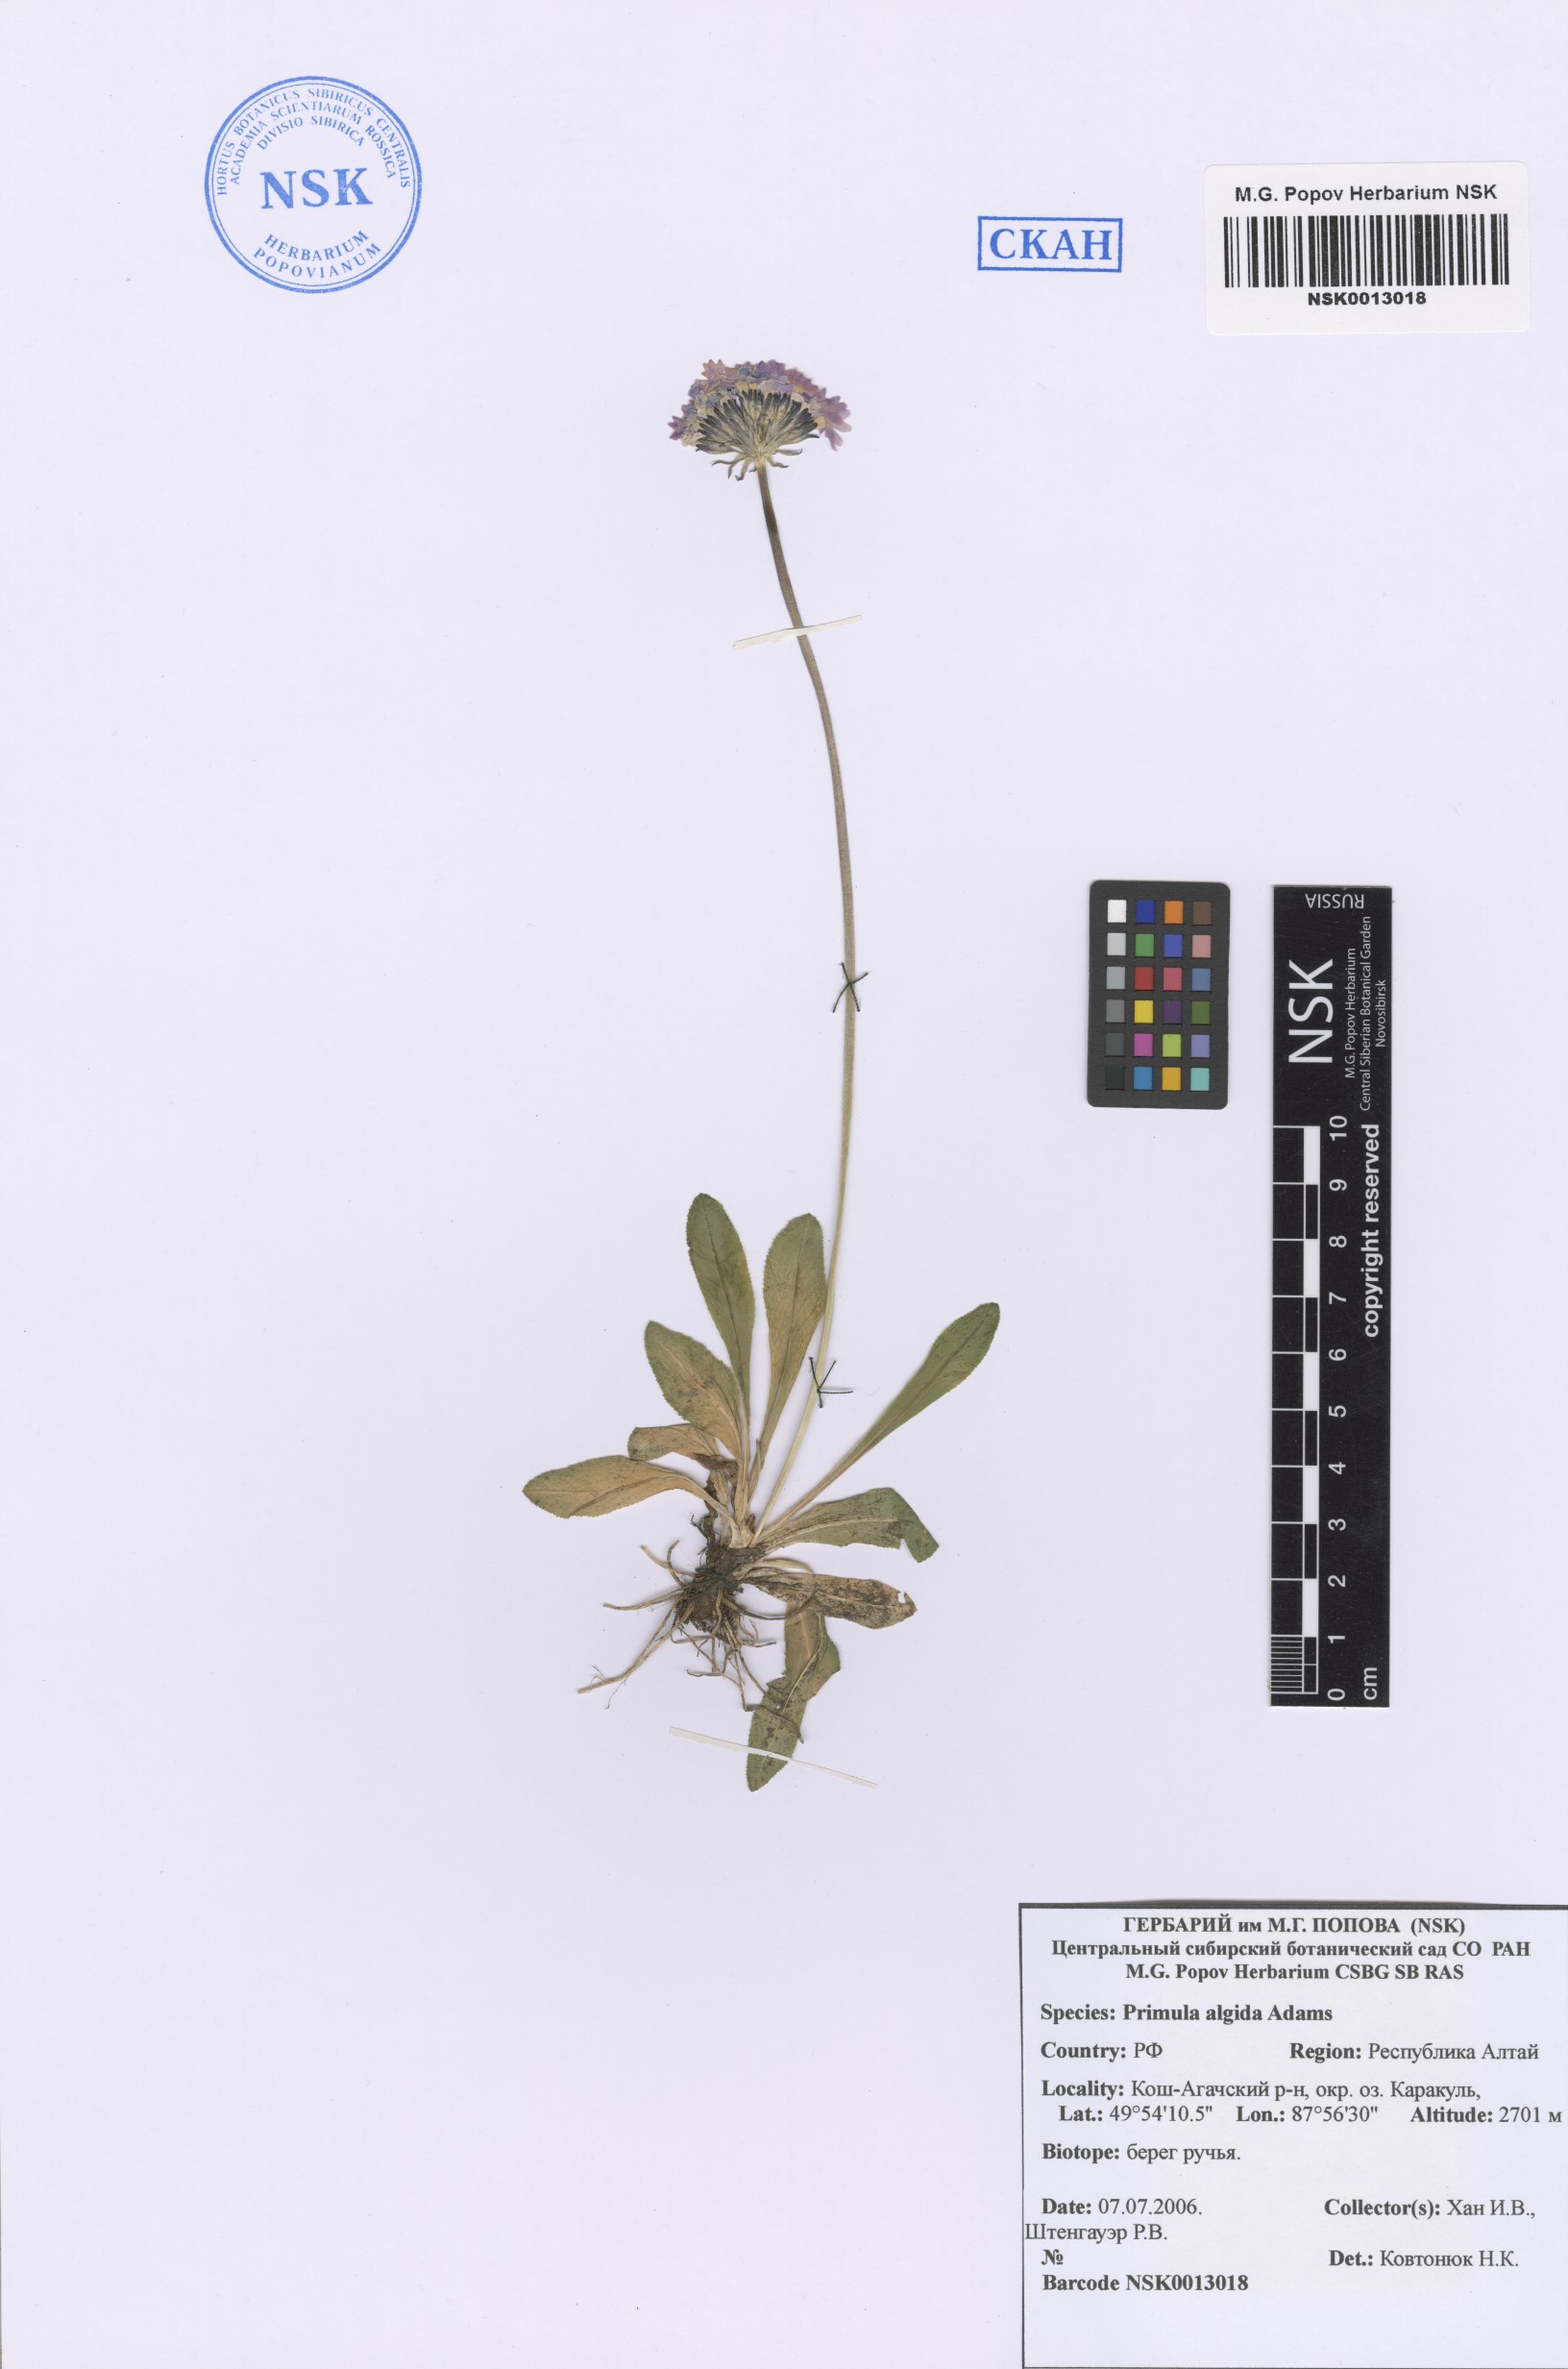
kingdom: Plantae
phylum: Tracheophyta
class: Magnoliopsida
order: Ericales
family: Primulaceae
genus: Primula
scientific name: Primula algida
